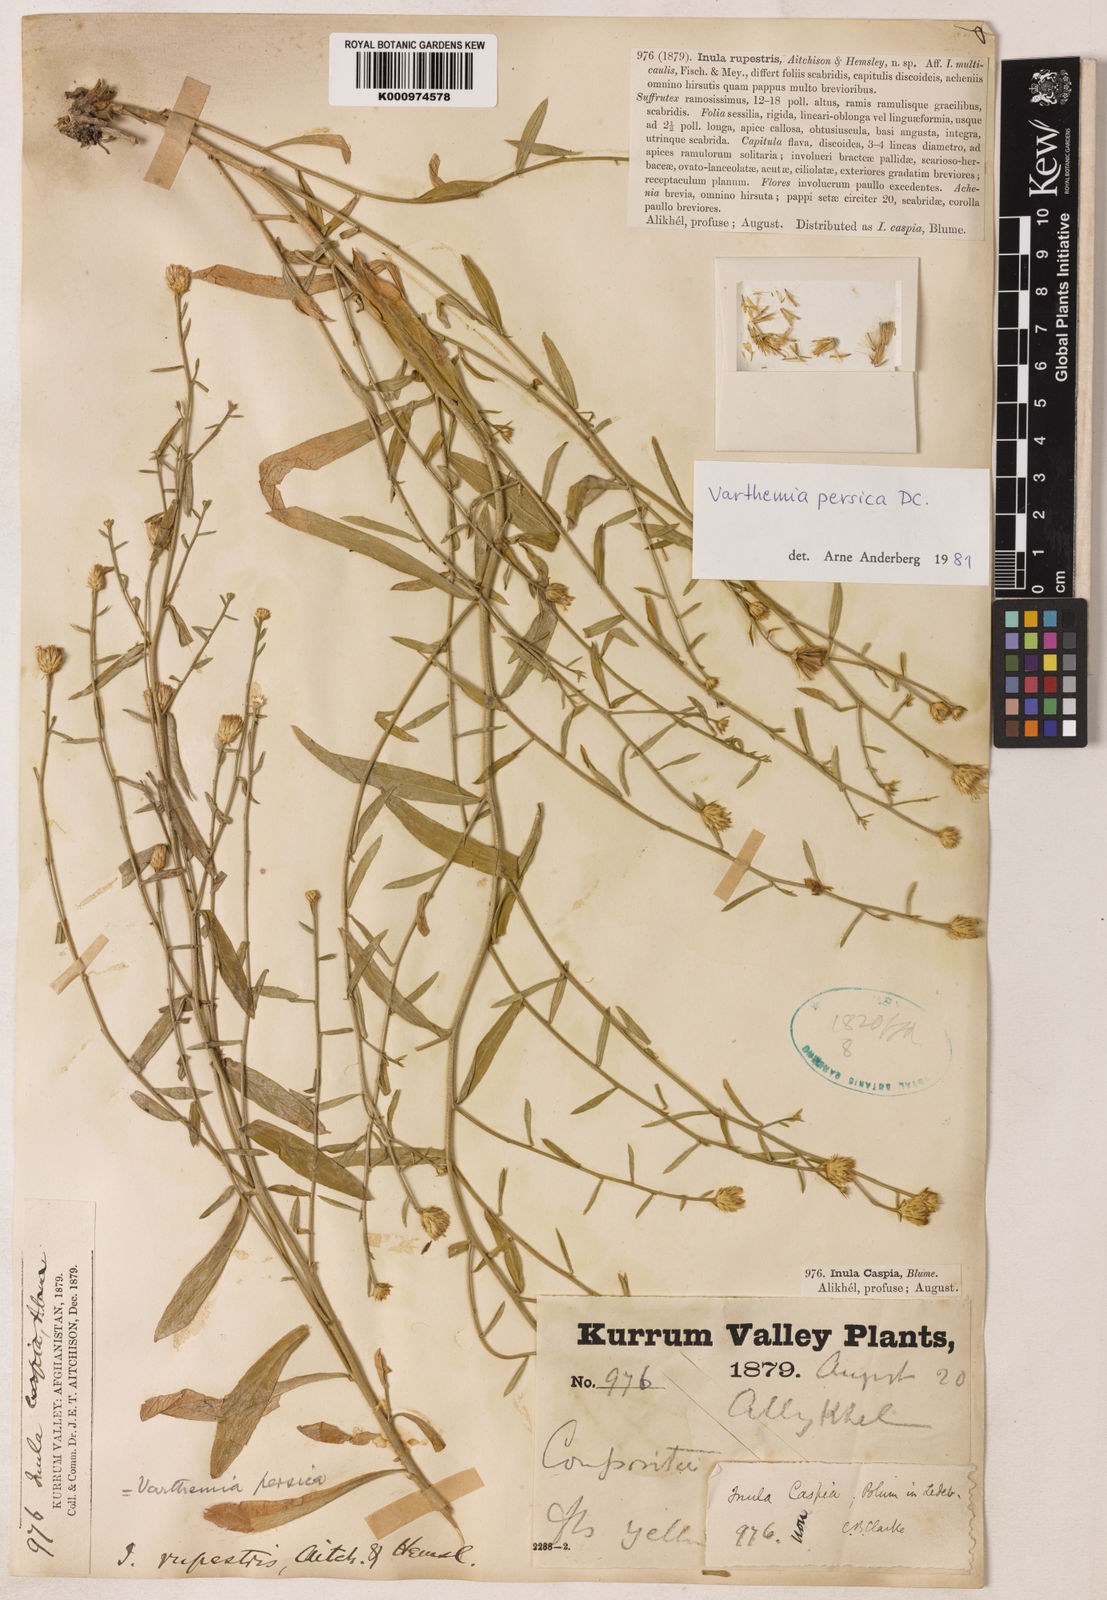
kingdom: Plantae
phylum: Tracheophyta
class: Magnoliopsida
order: Asterales
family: Asteraceae
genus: Pentanema
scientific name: Pentanema persicum
